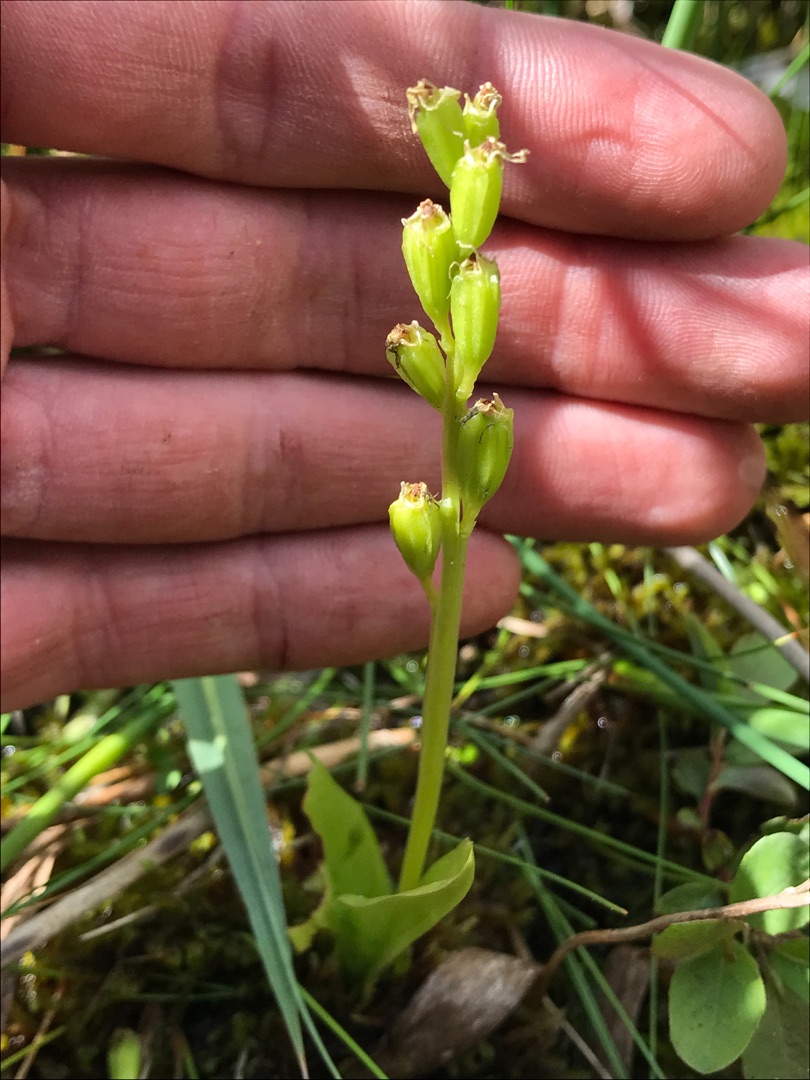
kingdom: Animalia
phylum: Arthropoda
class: Insecta
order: Coleoptera
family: Curculionidae
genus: Liparis
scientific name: Liparis loeselii
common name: Mygblomst
